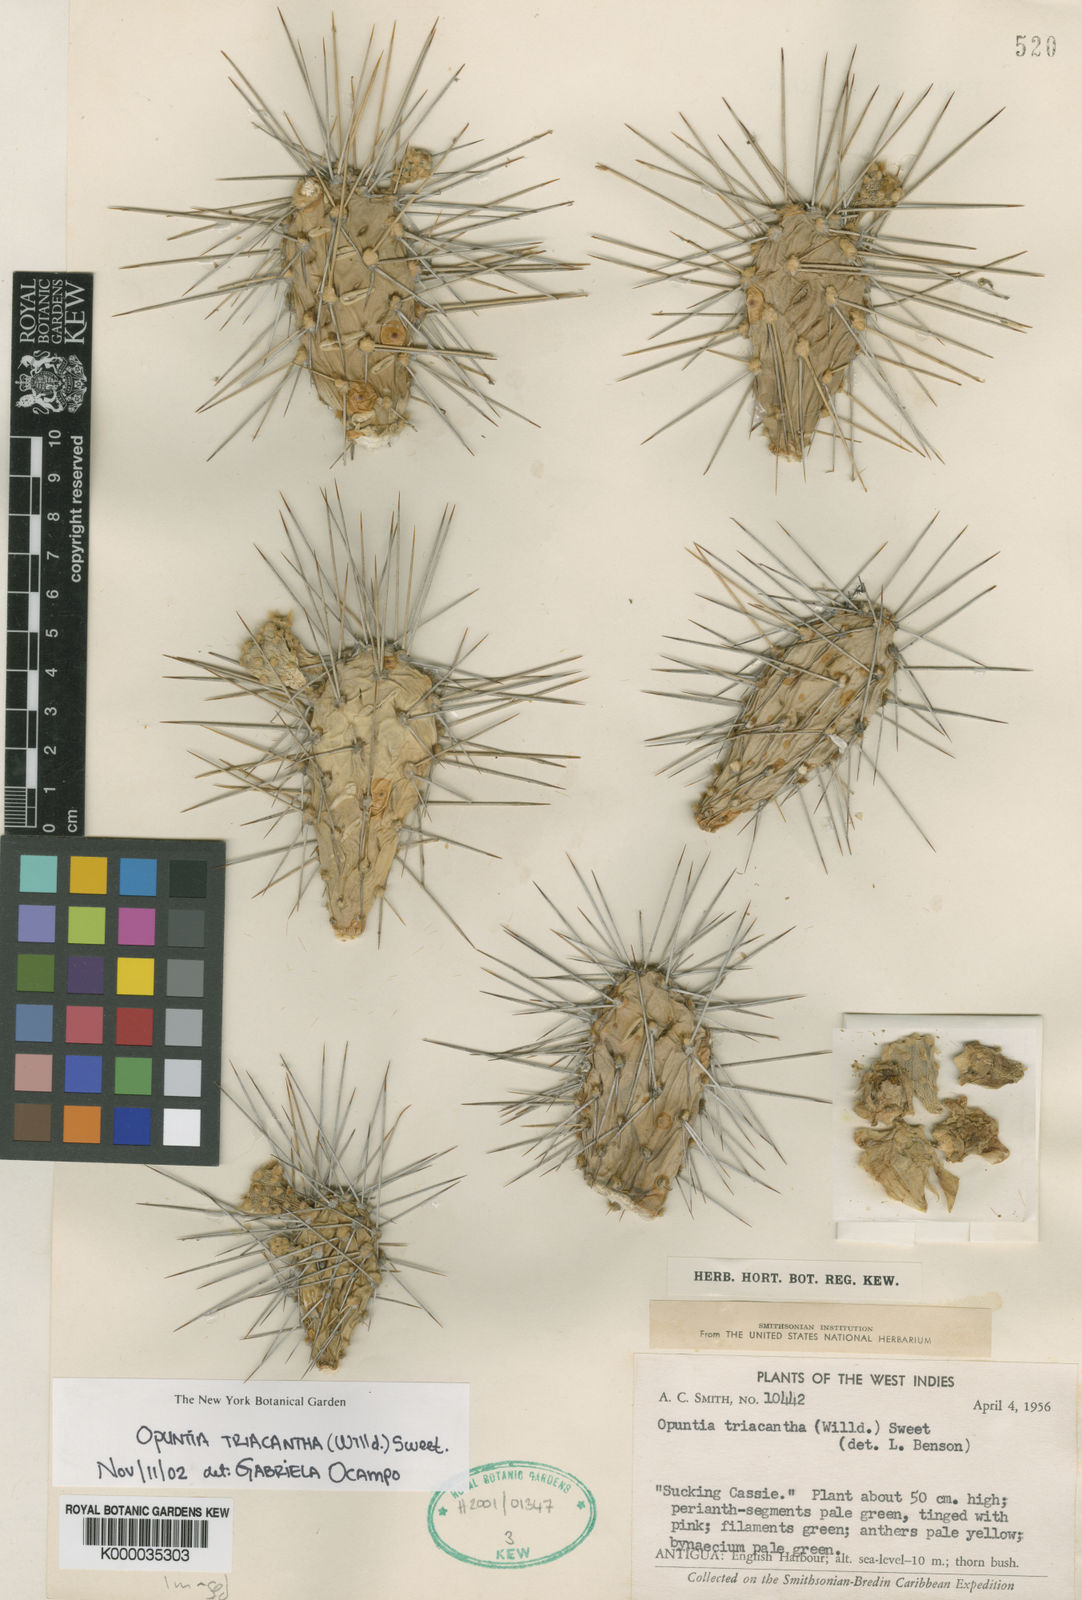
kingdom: Plantae
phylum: Tracheophyta
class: Magnoliopsida
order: Caryophyllales
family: Cactaceae
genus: Opuntia
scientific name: Opuntia
